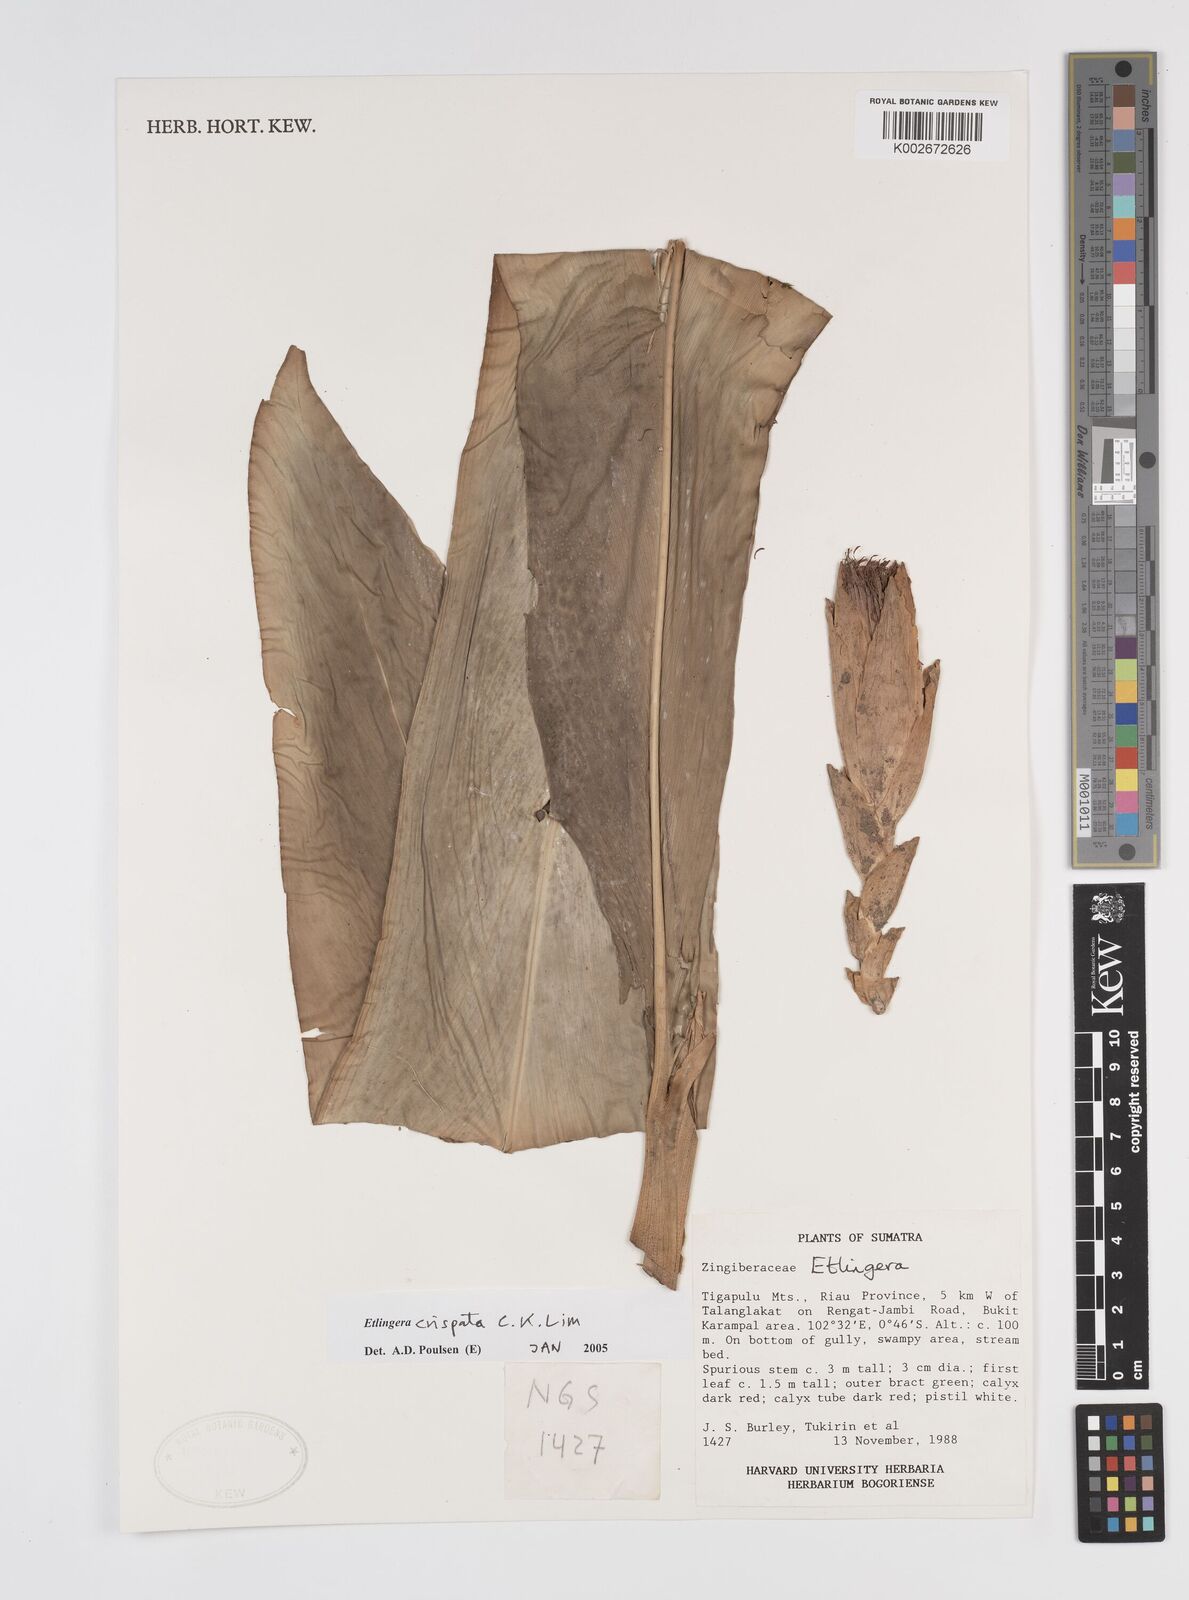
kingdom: Plantae
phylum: Tracheophyta
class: Liliopsida
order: Zingiberales
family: Zingiberaceae
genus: Etlingera
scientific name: Etlingera crispata
